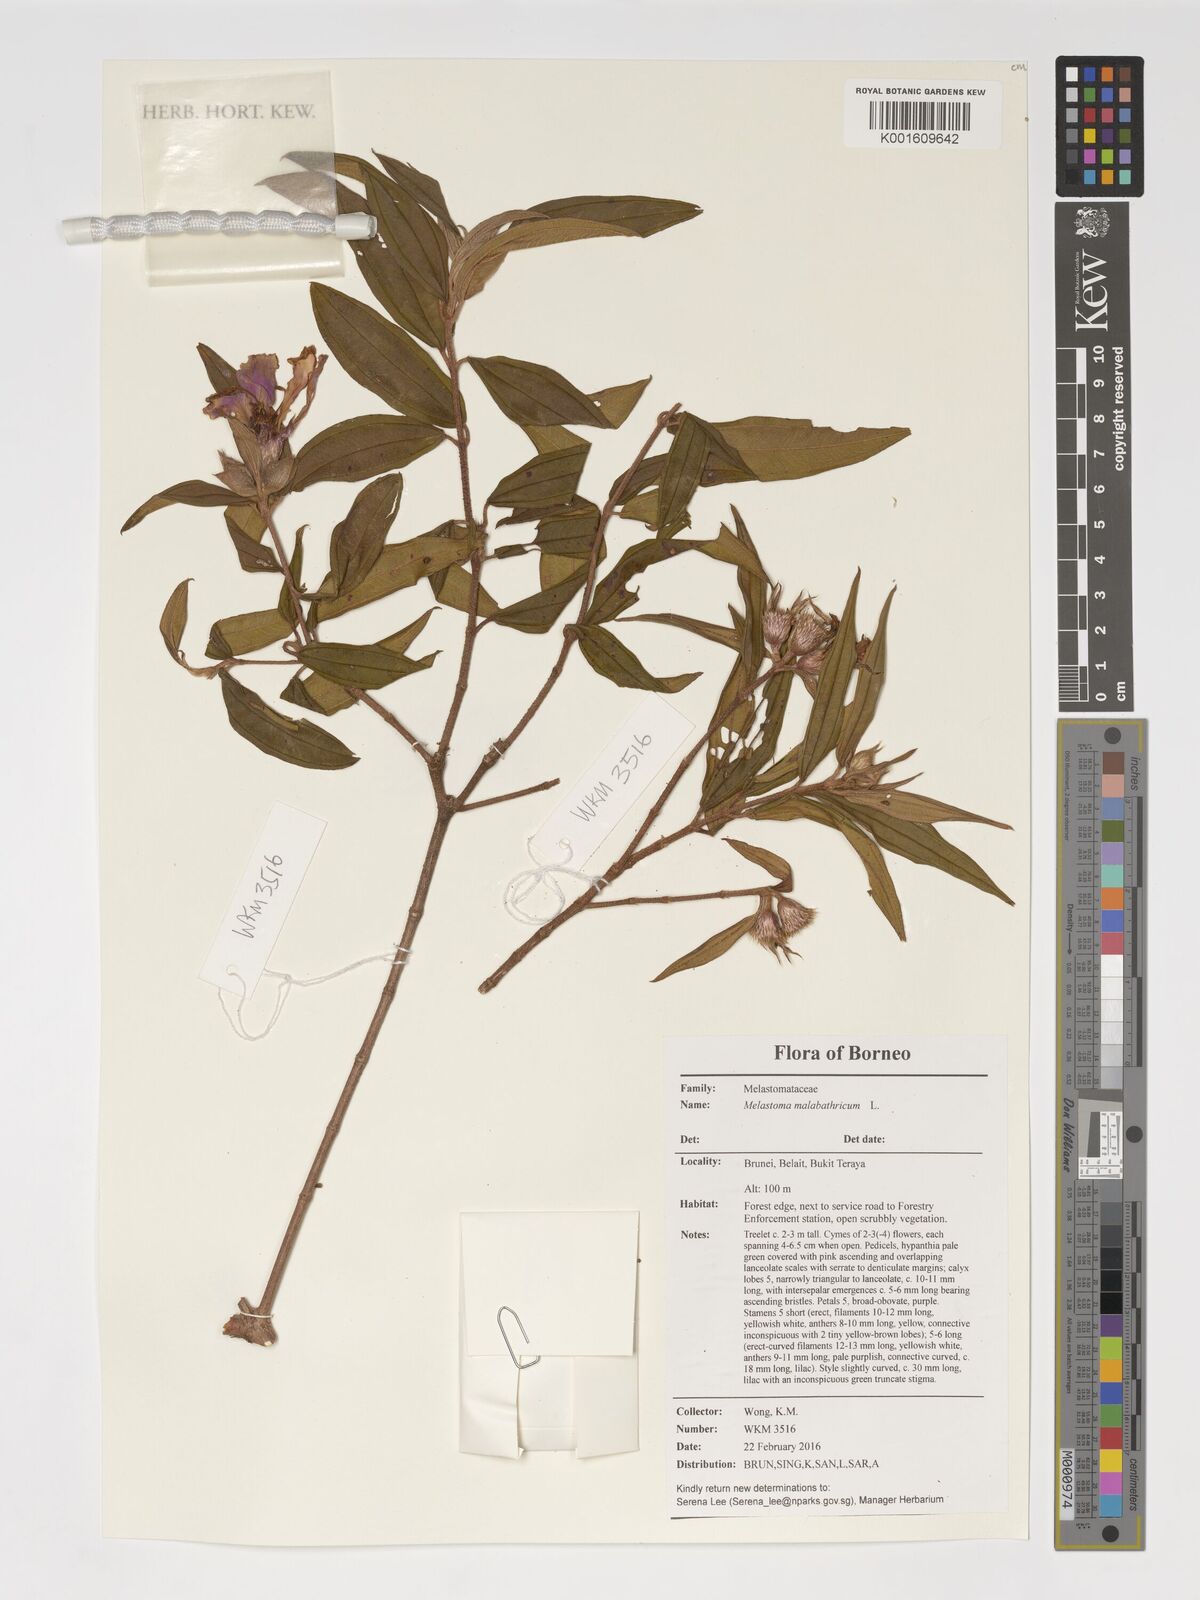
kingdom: Plantae
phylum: Tracheophyta
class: Magnoliopsida
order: Myrtales
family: Melastomataceae
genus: Melastoma
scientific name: Melastoma malabathricum
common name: Indian-rhododendron
